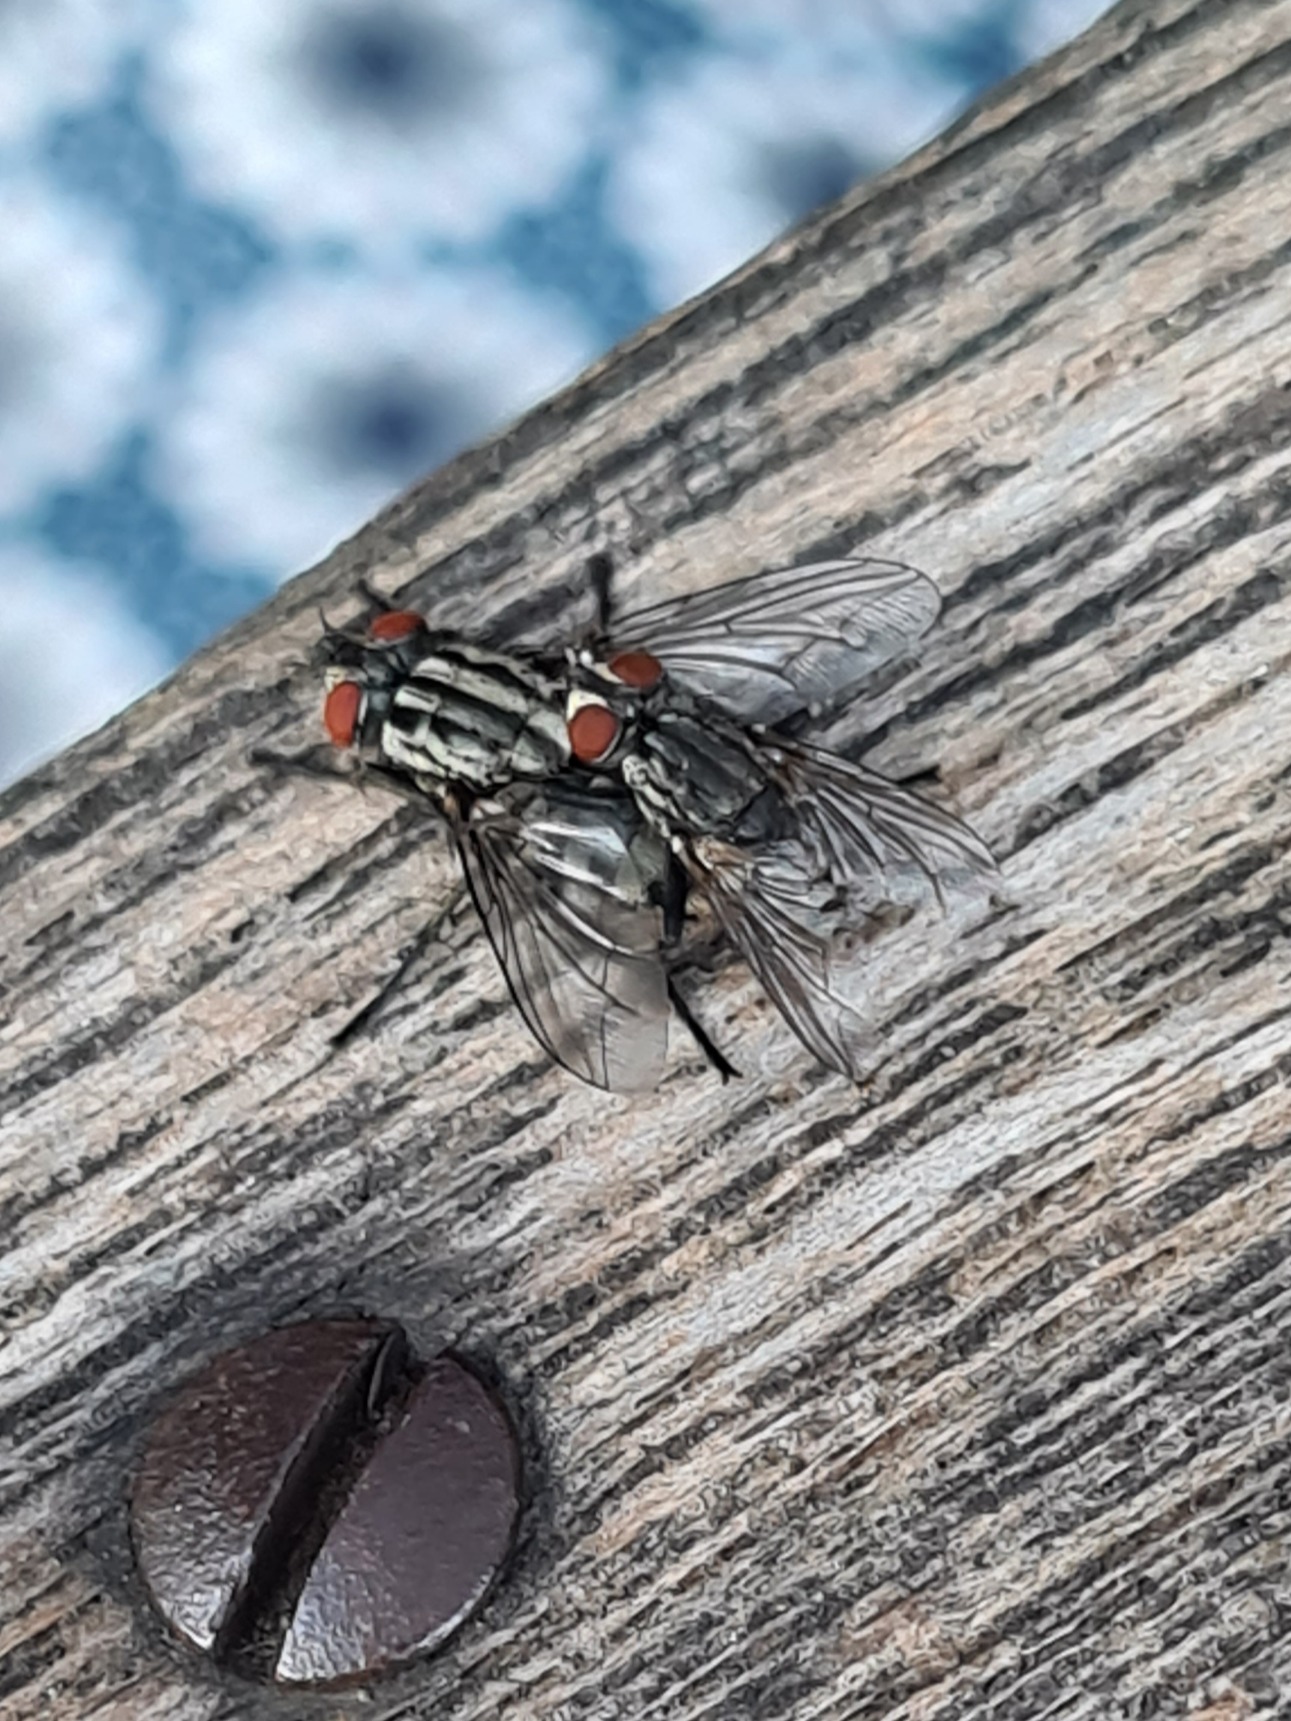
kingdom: Animalia
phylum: Arthropoda
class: Insecta
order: Diptera
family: Sarcophagidae
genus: Sarcophaga
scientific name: Sarcophaga
